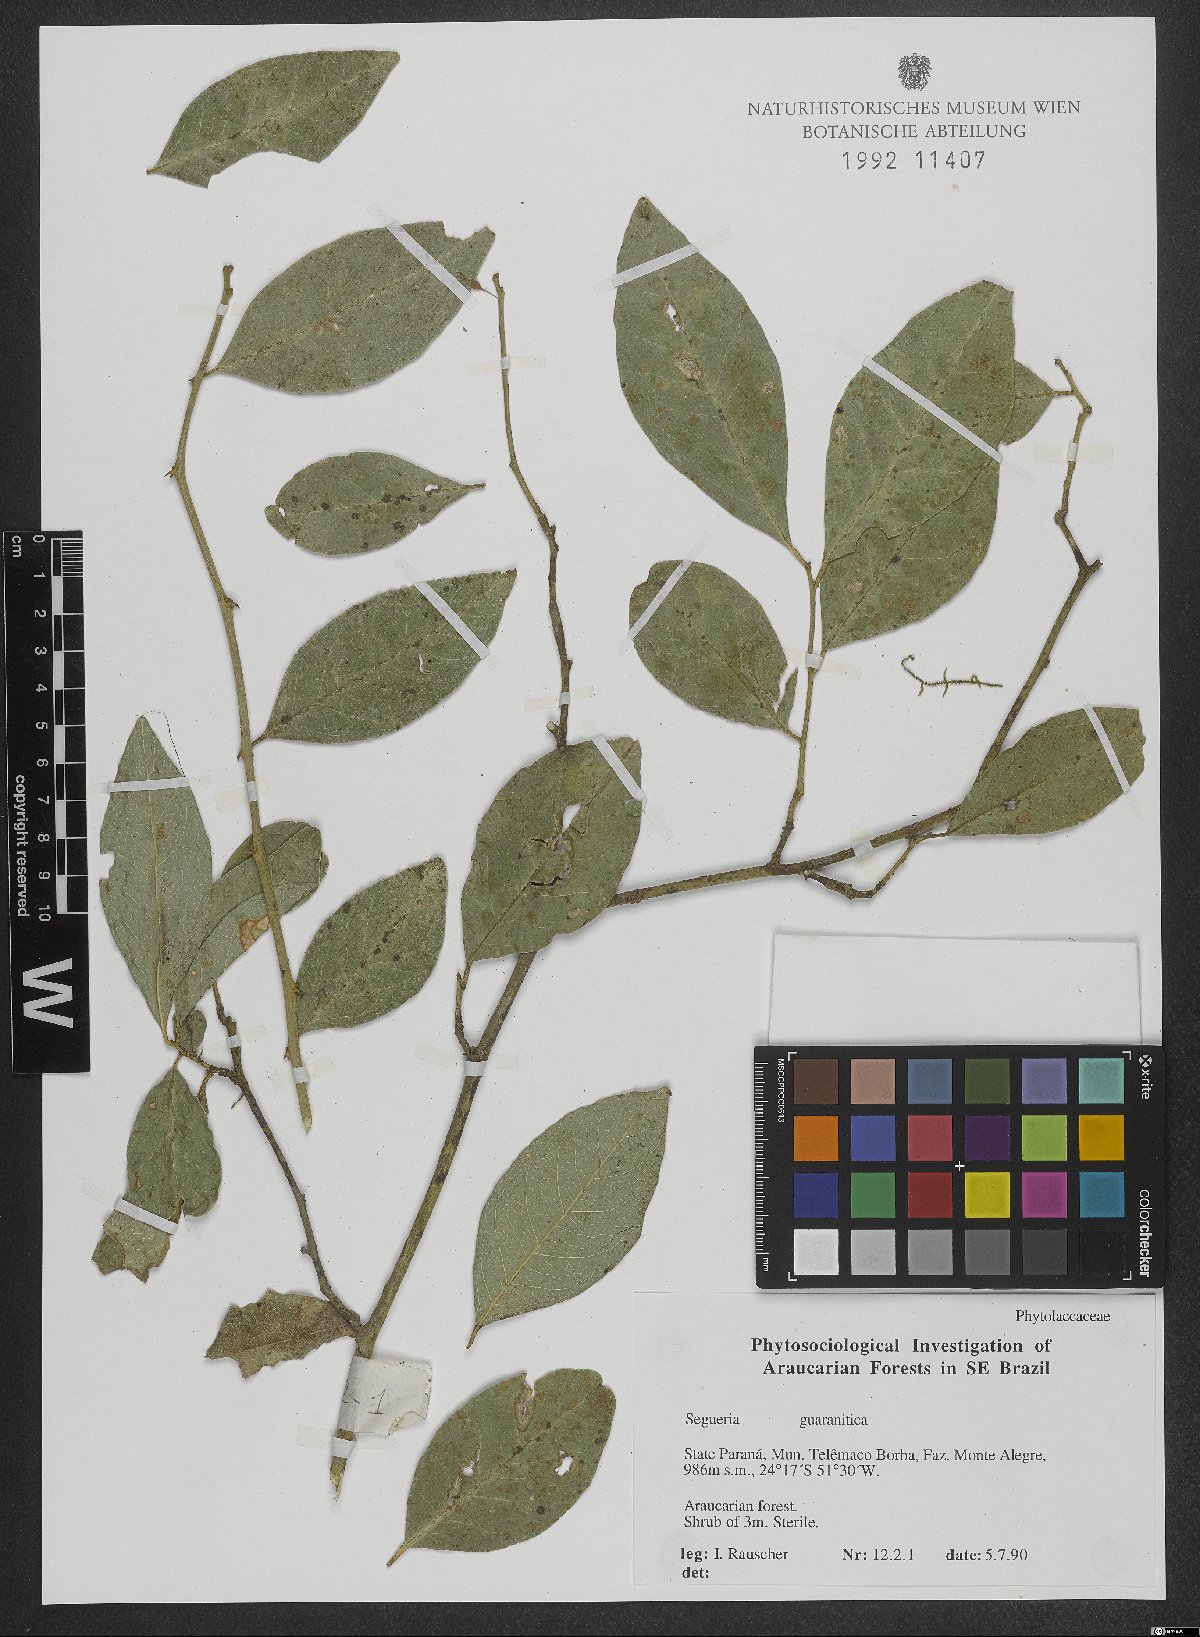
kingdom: Plantae
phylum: Tracheophyta
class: Magnoliopsida
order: Caryophyllales
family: Phytolaccaceae
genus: Seguieria
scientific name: Seguieria aculeata
